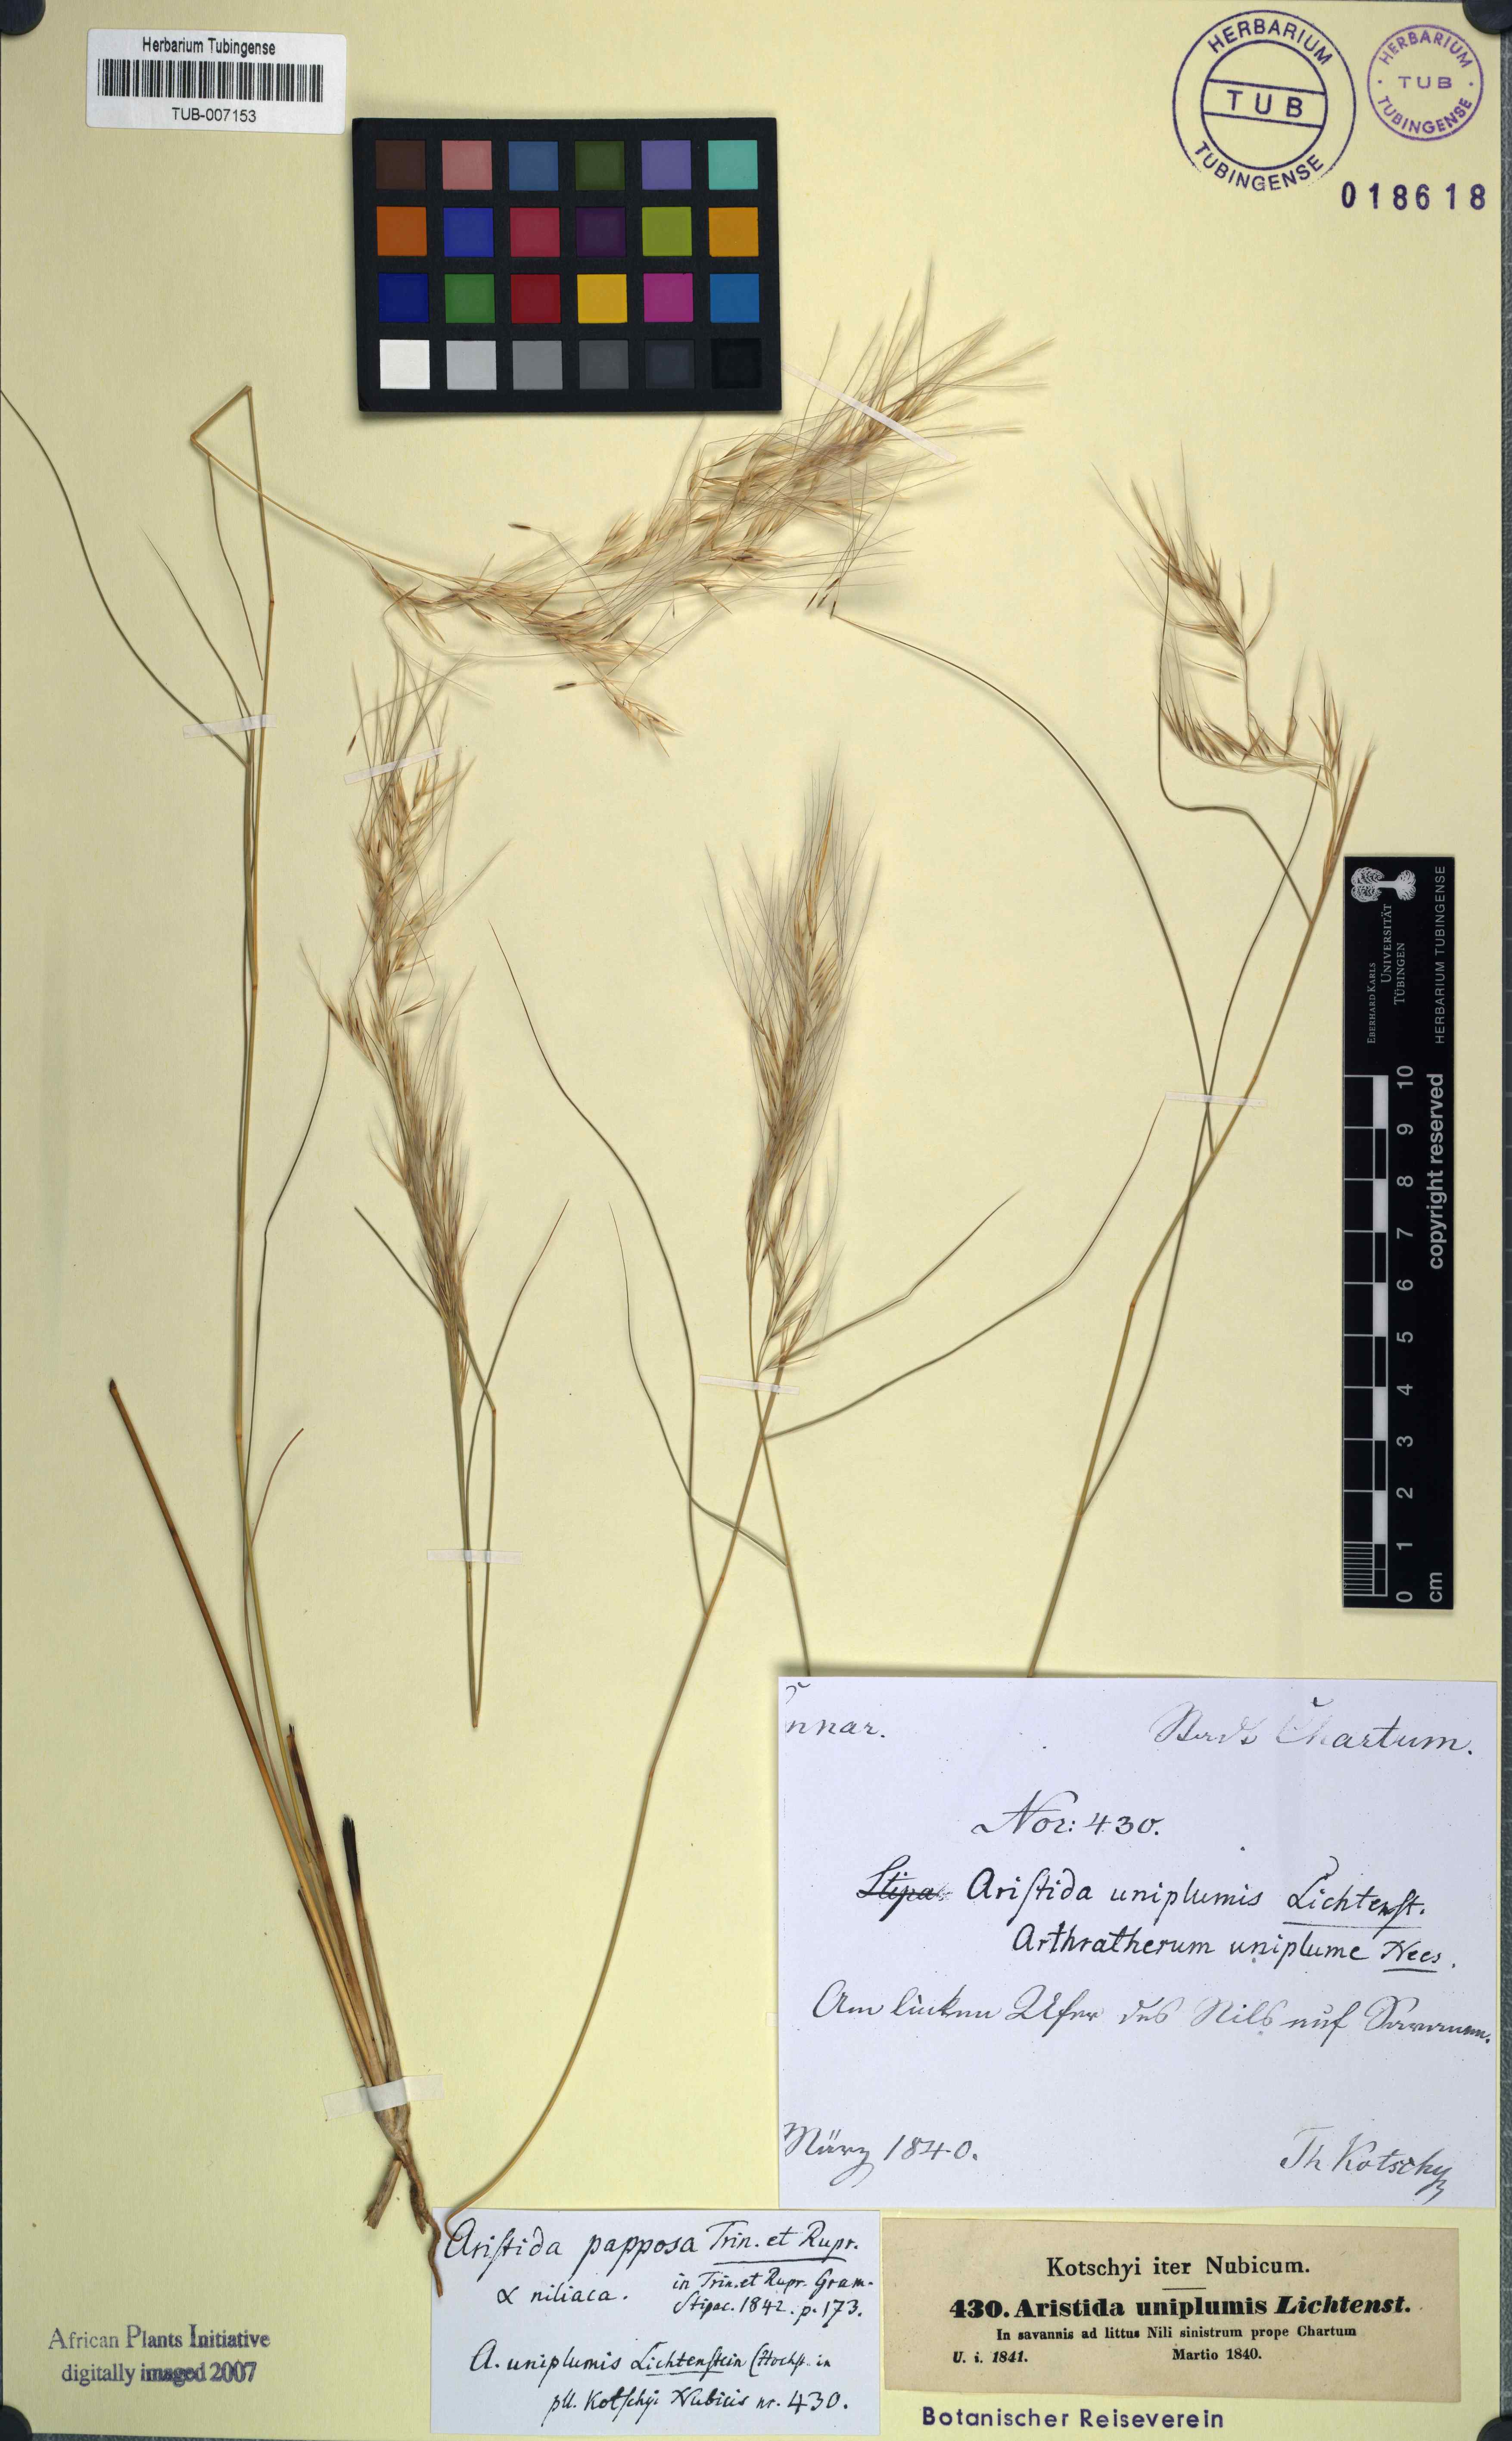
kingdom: Plantae
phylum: Tracheophyta
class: Liliopsida
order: Poales
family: Poaceae
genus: Stipagrostis
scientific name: Stipagrostis uniplumis
